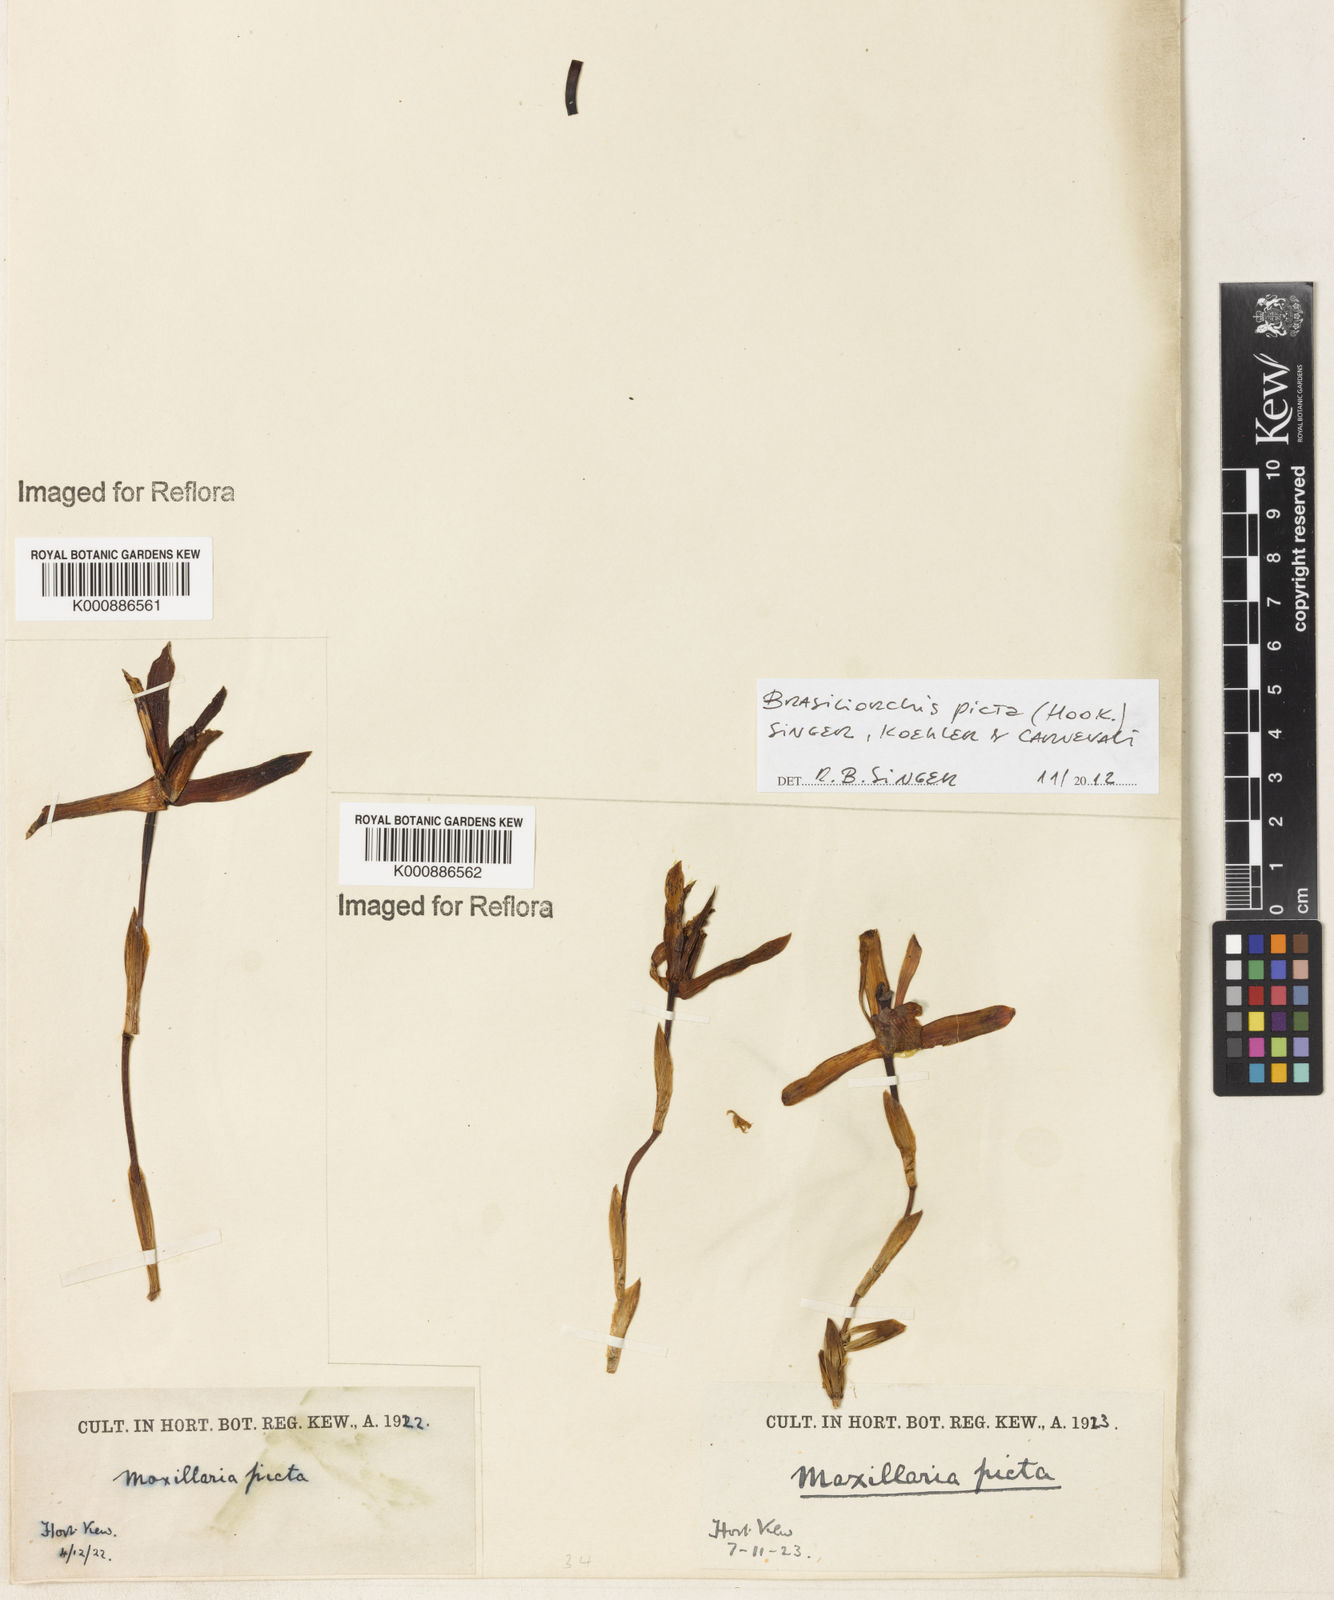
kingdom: Plantae
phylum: Tracheophyta
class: Liliopsida
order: Asparagales
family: Orchidaceae
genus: Maxillaria
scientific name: Maxillaria
